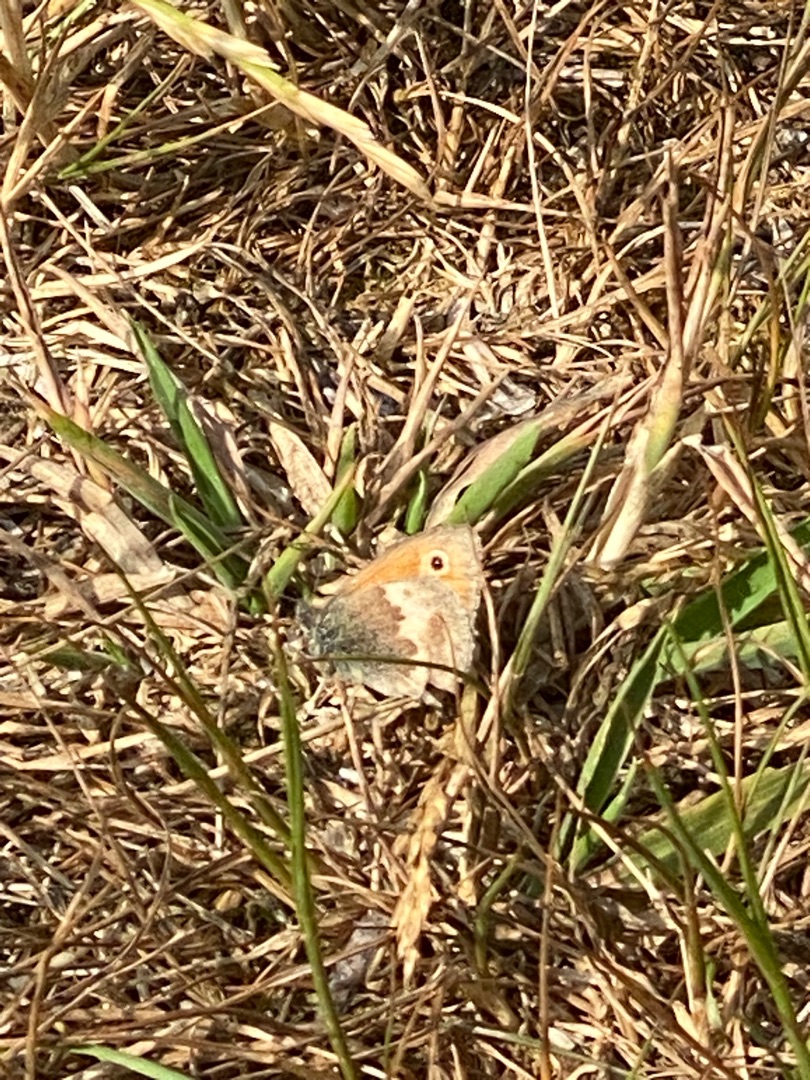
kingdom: Animalia
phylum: Arthropoda
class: Insecta
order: Lepidoptera
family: Nymphalidae
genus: Coenonympha
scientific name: Coenonympha pamphilus
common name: Okkergul randøje
